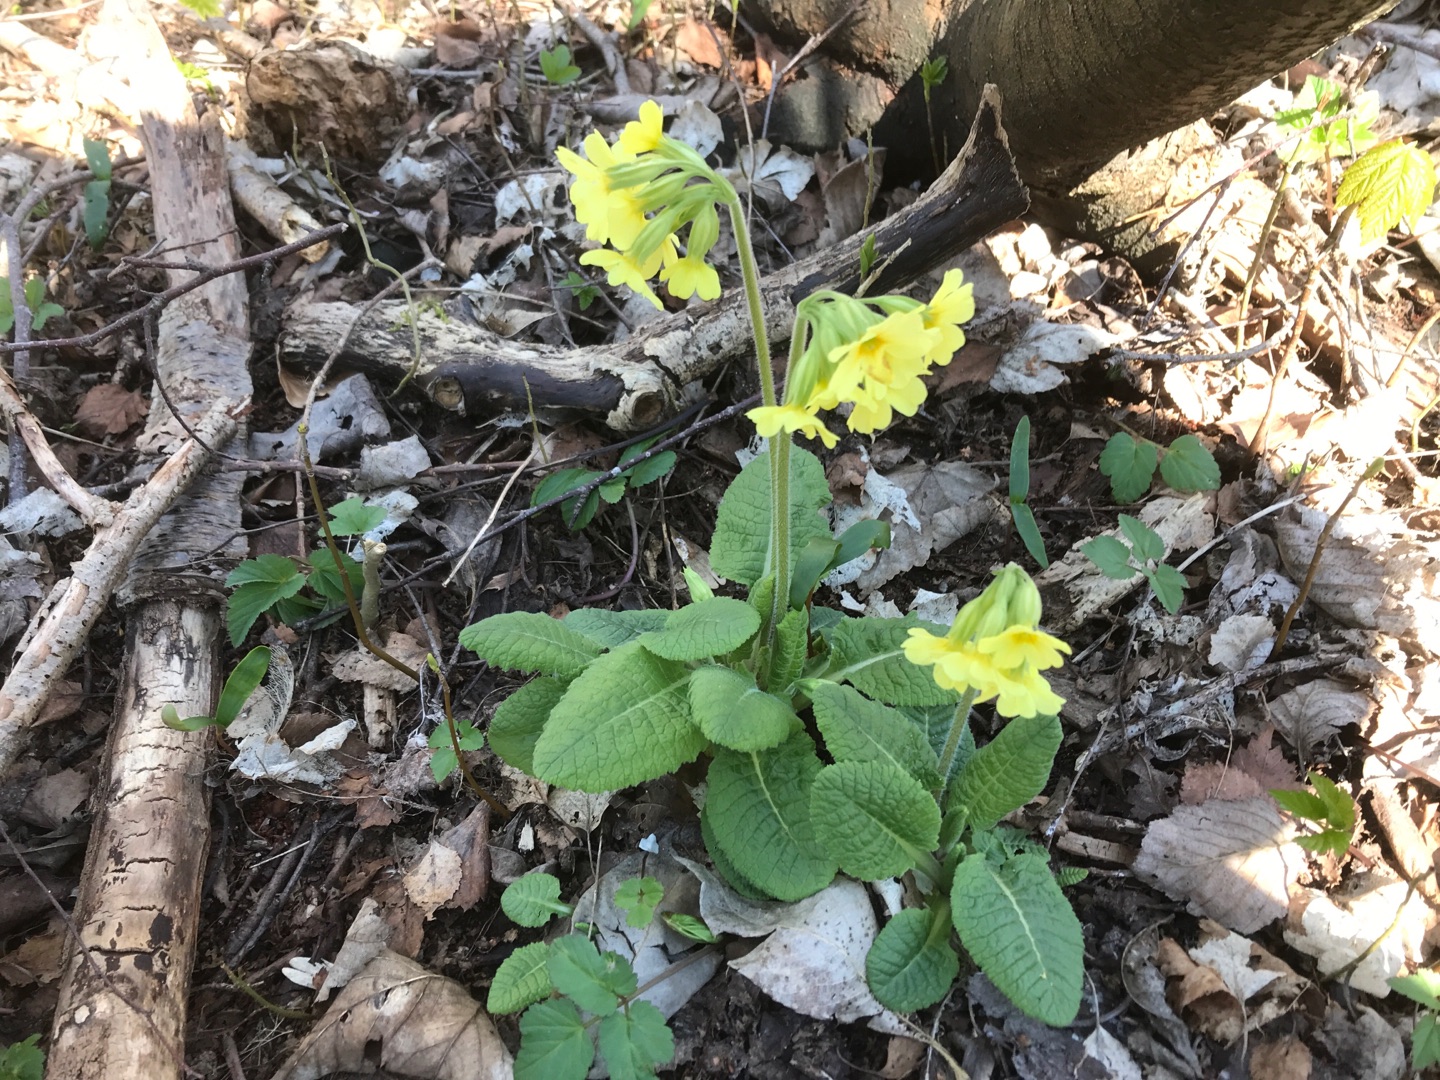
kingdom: Plantae
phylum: Tracheophyta
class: Magnoliopsida
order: Ericales
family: Primulaceae
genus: Primula
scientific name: Primula elatior
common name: Fladkravet kodriver
